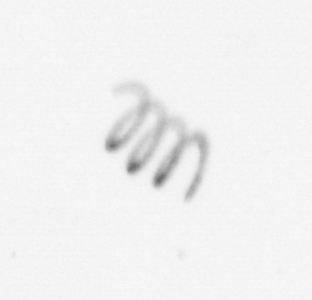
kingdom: Chromista
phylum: Ochrophyta
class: Bacillariophyceae
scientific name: Bacillariophyceae
